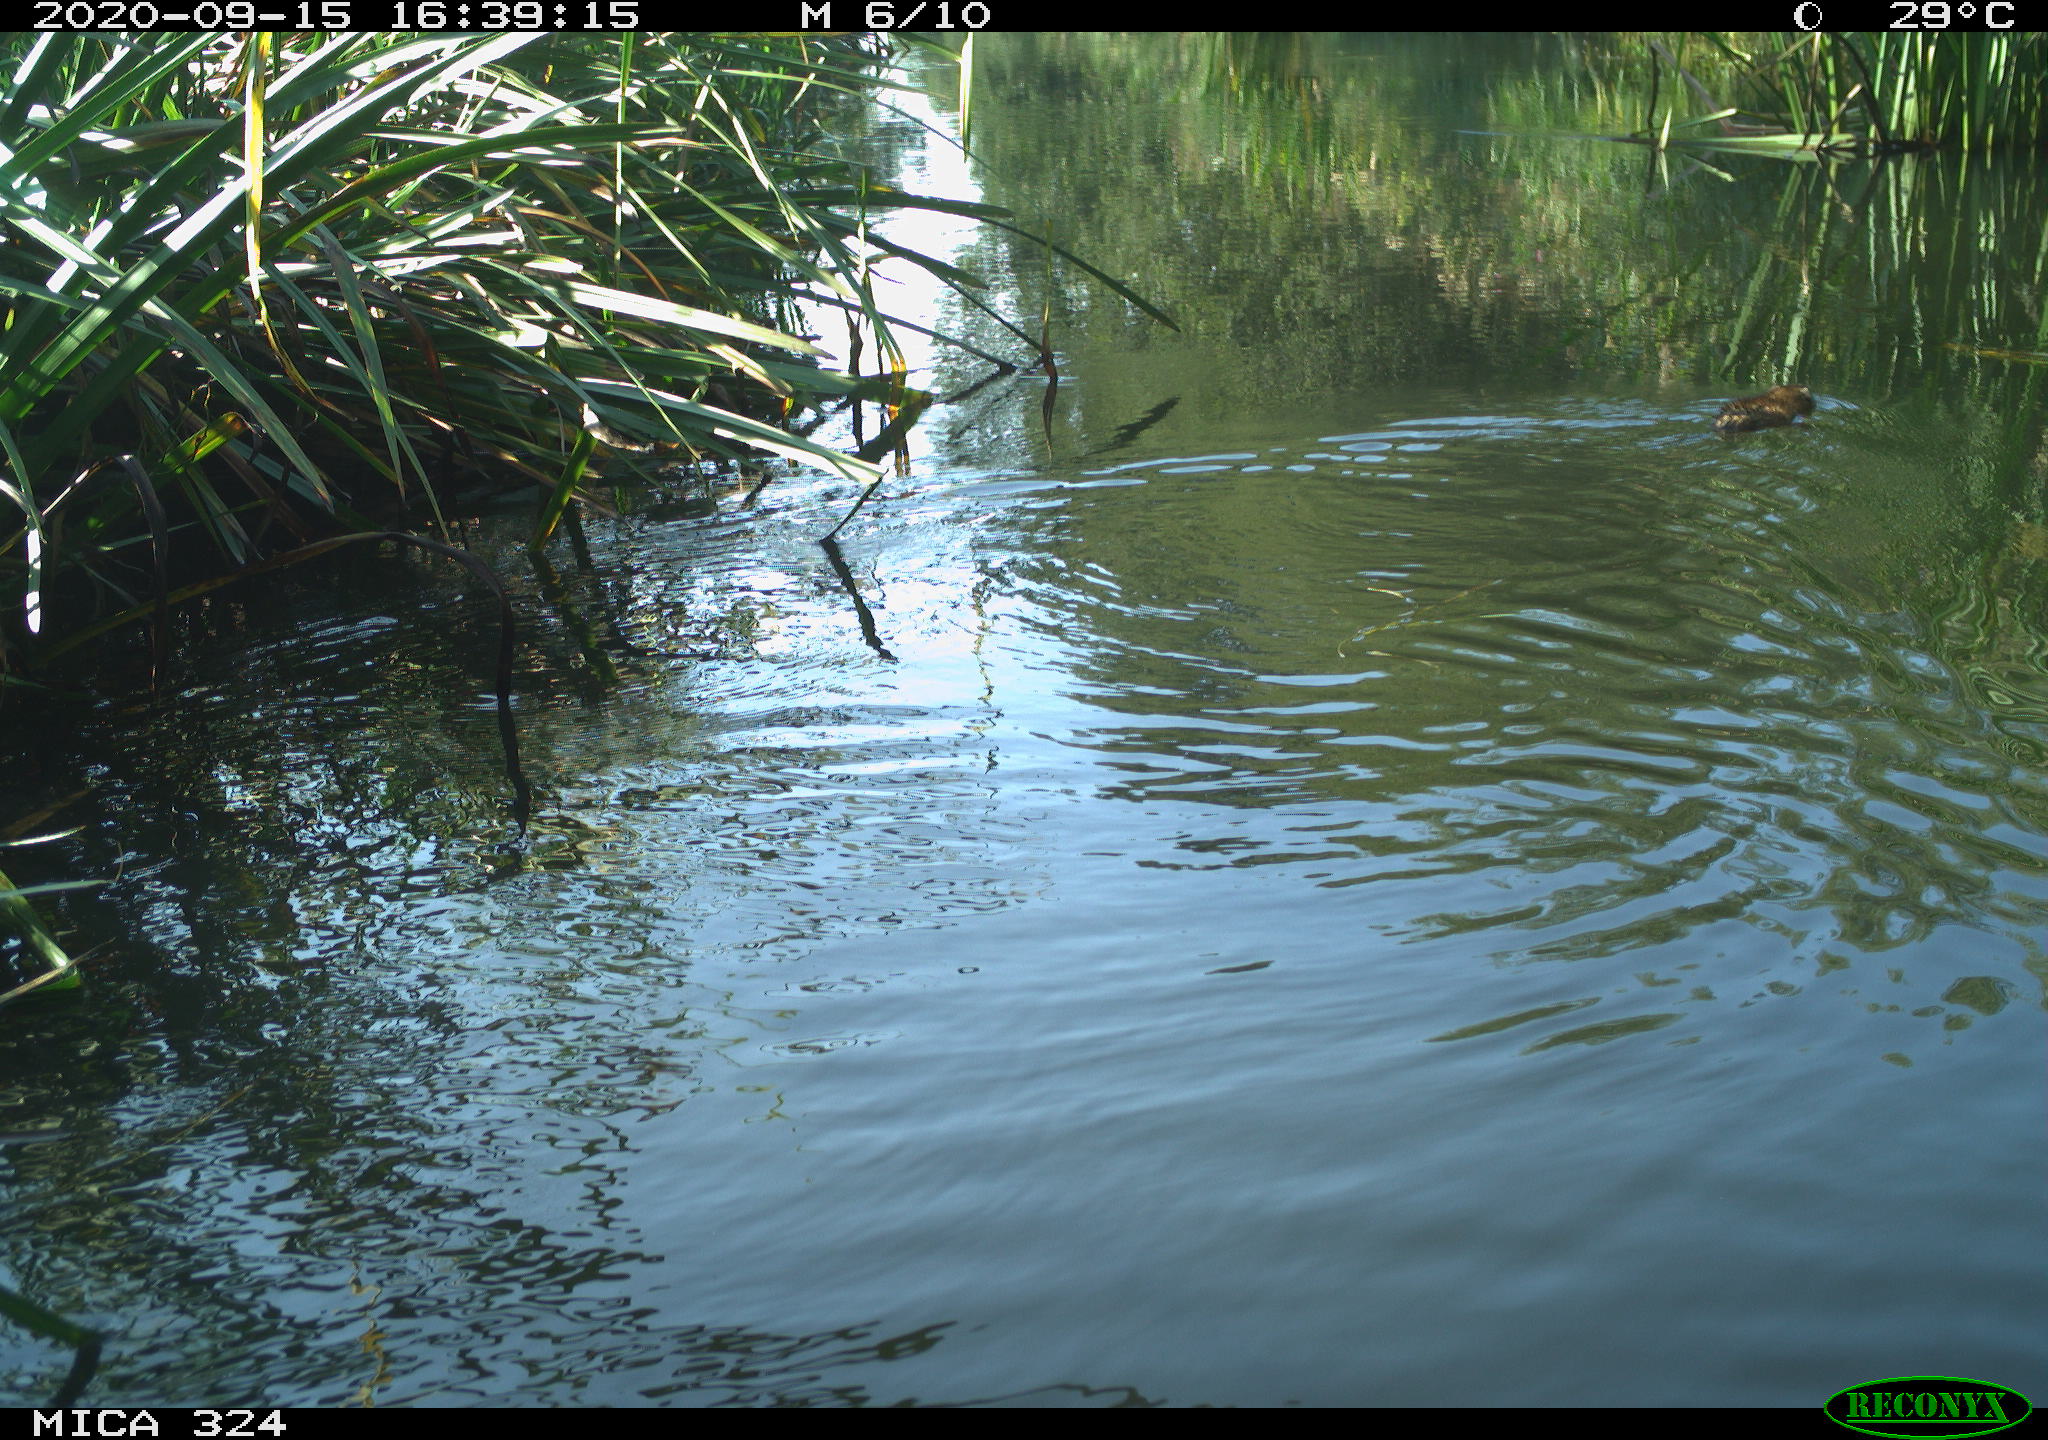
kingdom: Animalia
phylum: Chordata
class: Mammalia
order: Rodentia
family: Cricetidae
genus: Ondatra
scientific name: Ondatra zibethicus
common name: Muskrat
